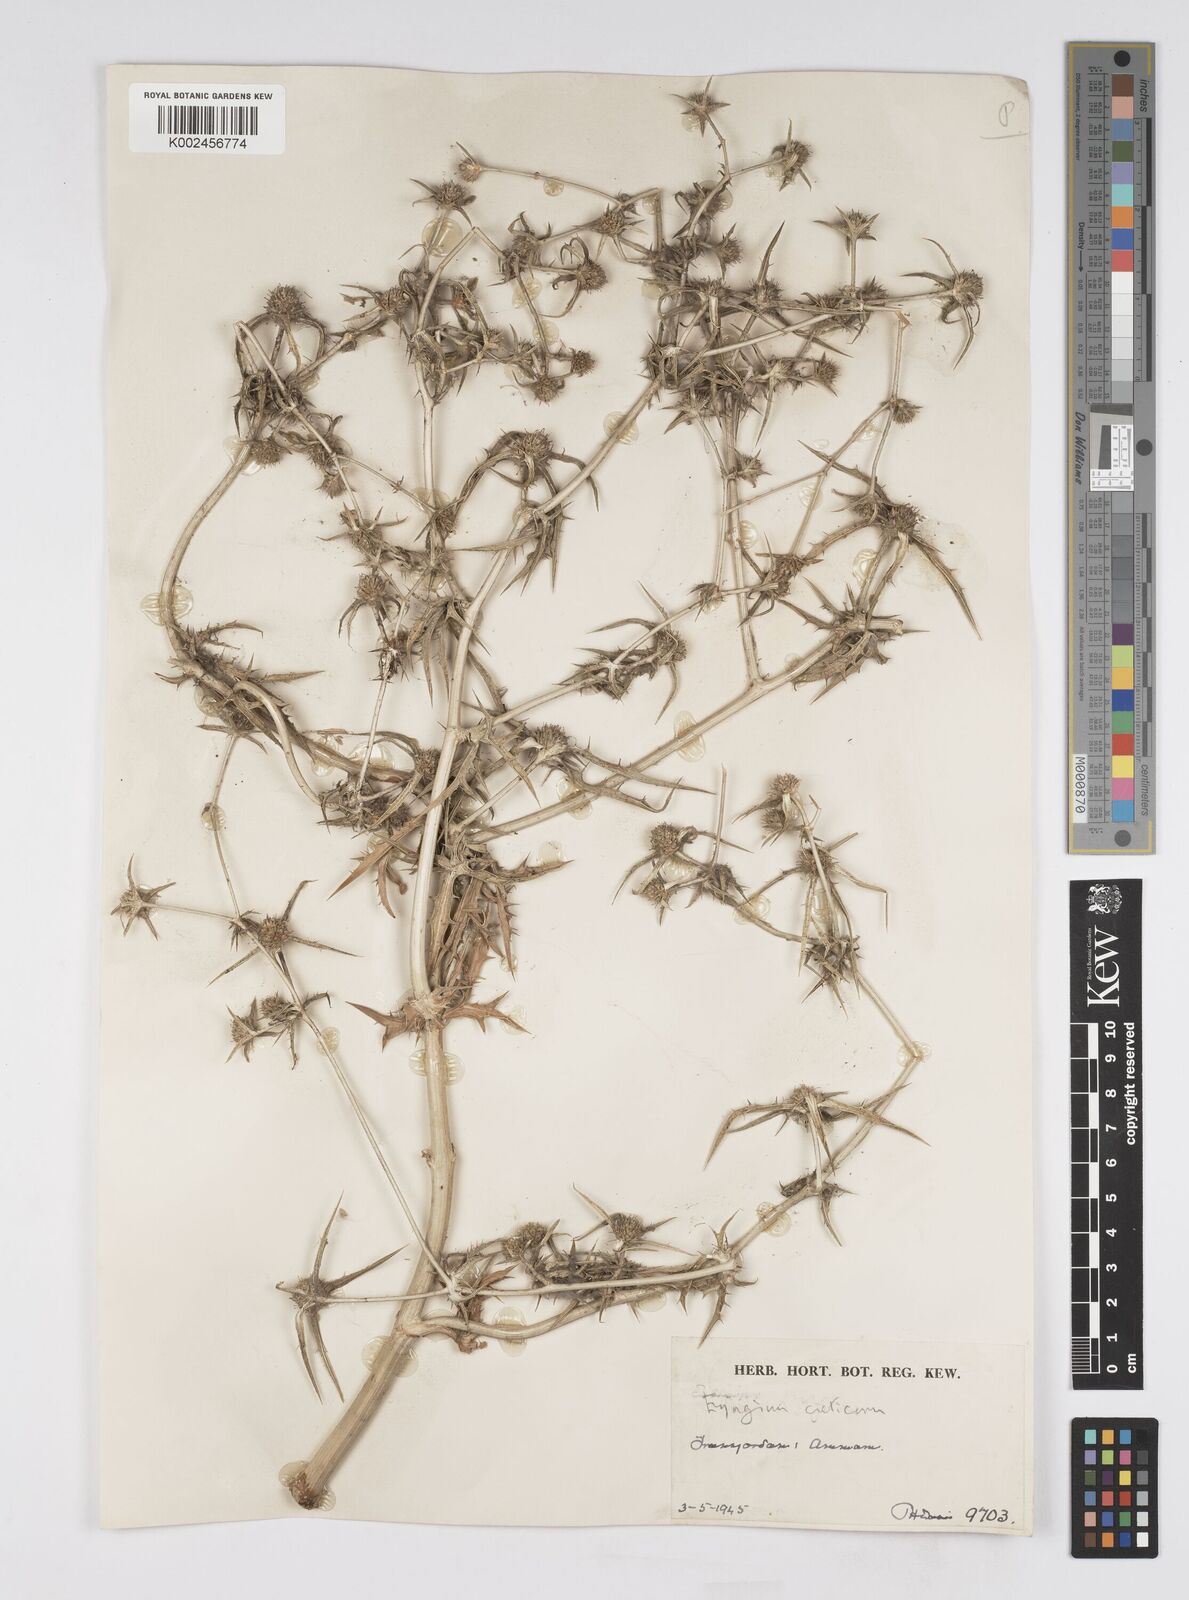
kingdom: Plantae
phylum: Tracheophyta
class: Magnoliopsida
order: Apiales
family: Apiaceae
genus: Eryngium
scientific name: Eryngium creticum
